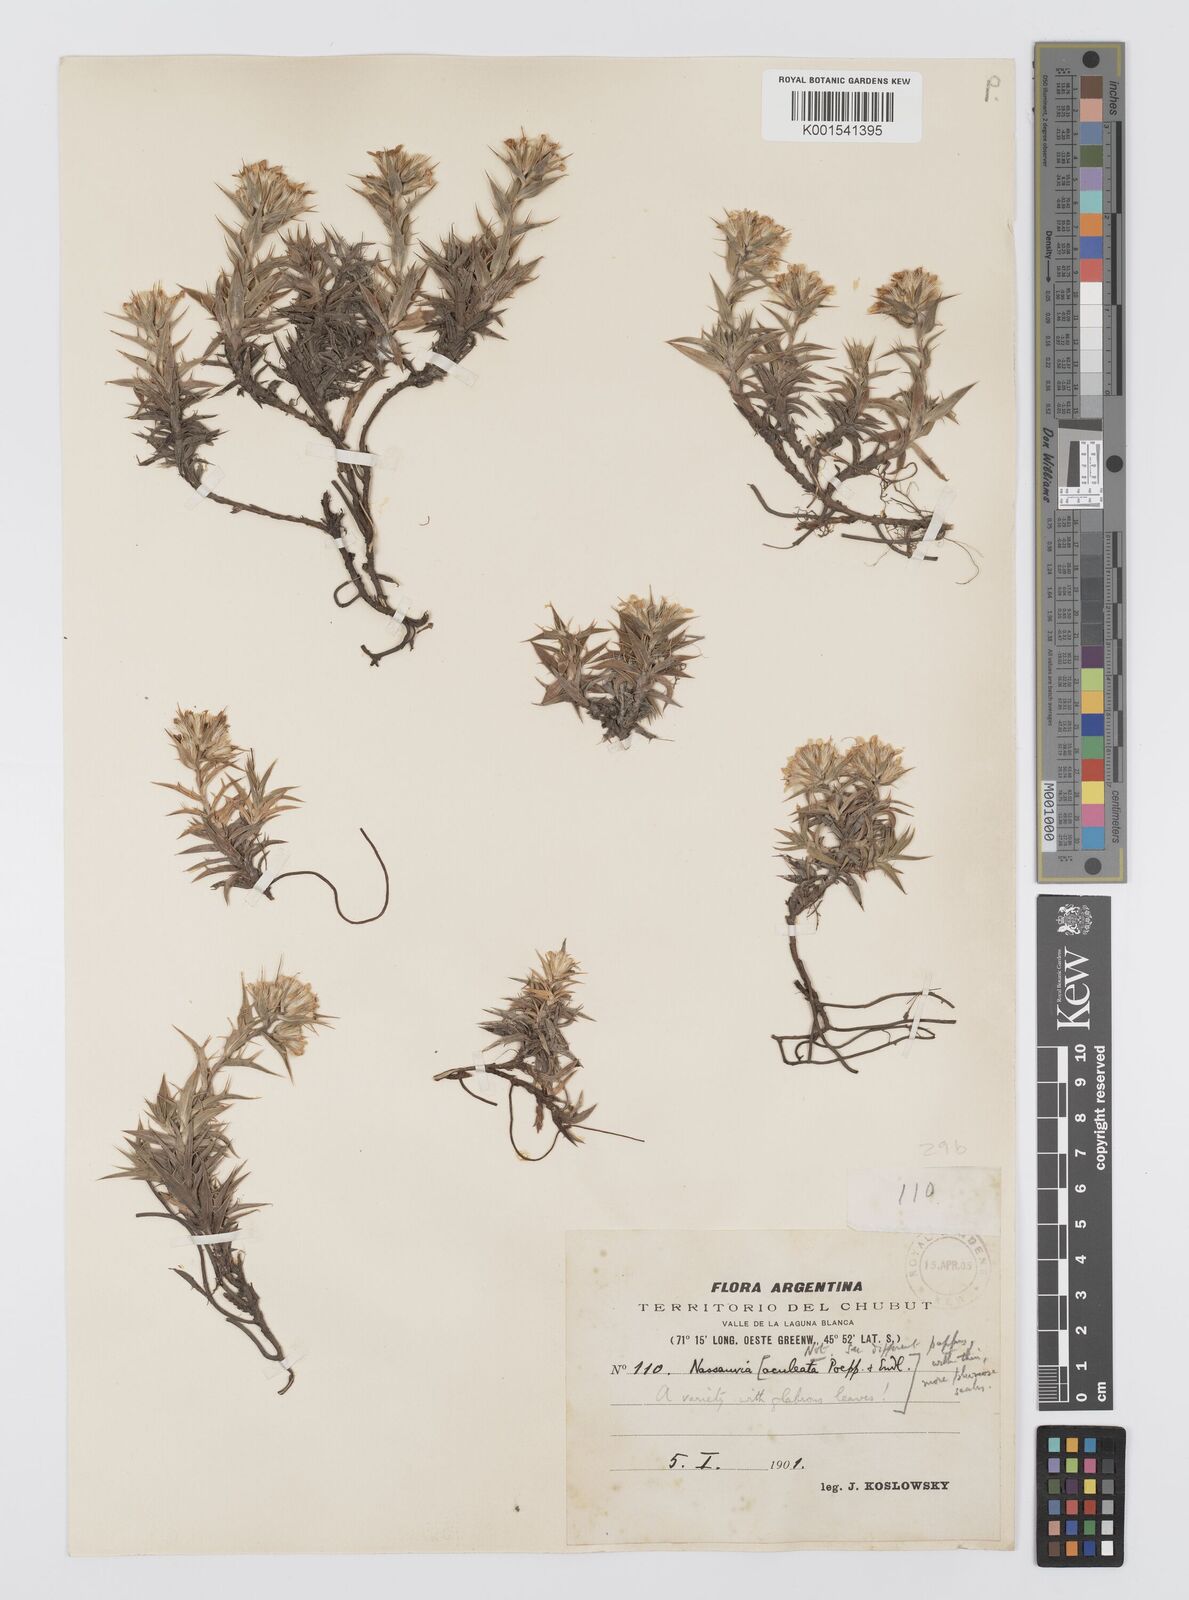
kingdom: Plantae
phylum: Tracheophyta
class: Magnoliopsida
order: Asterales
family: Asteraceae
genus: Nassauvia
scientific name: Nassauvia aculeata
